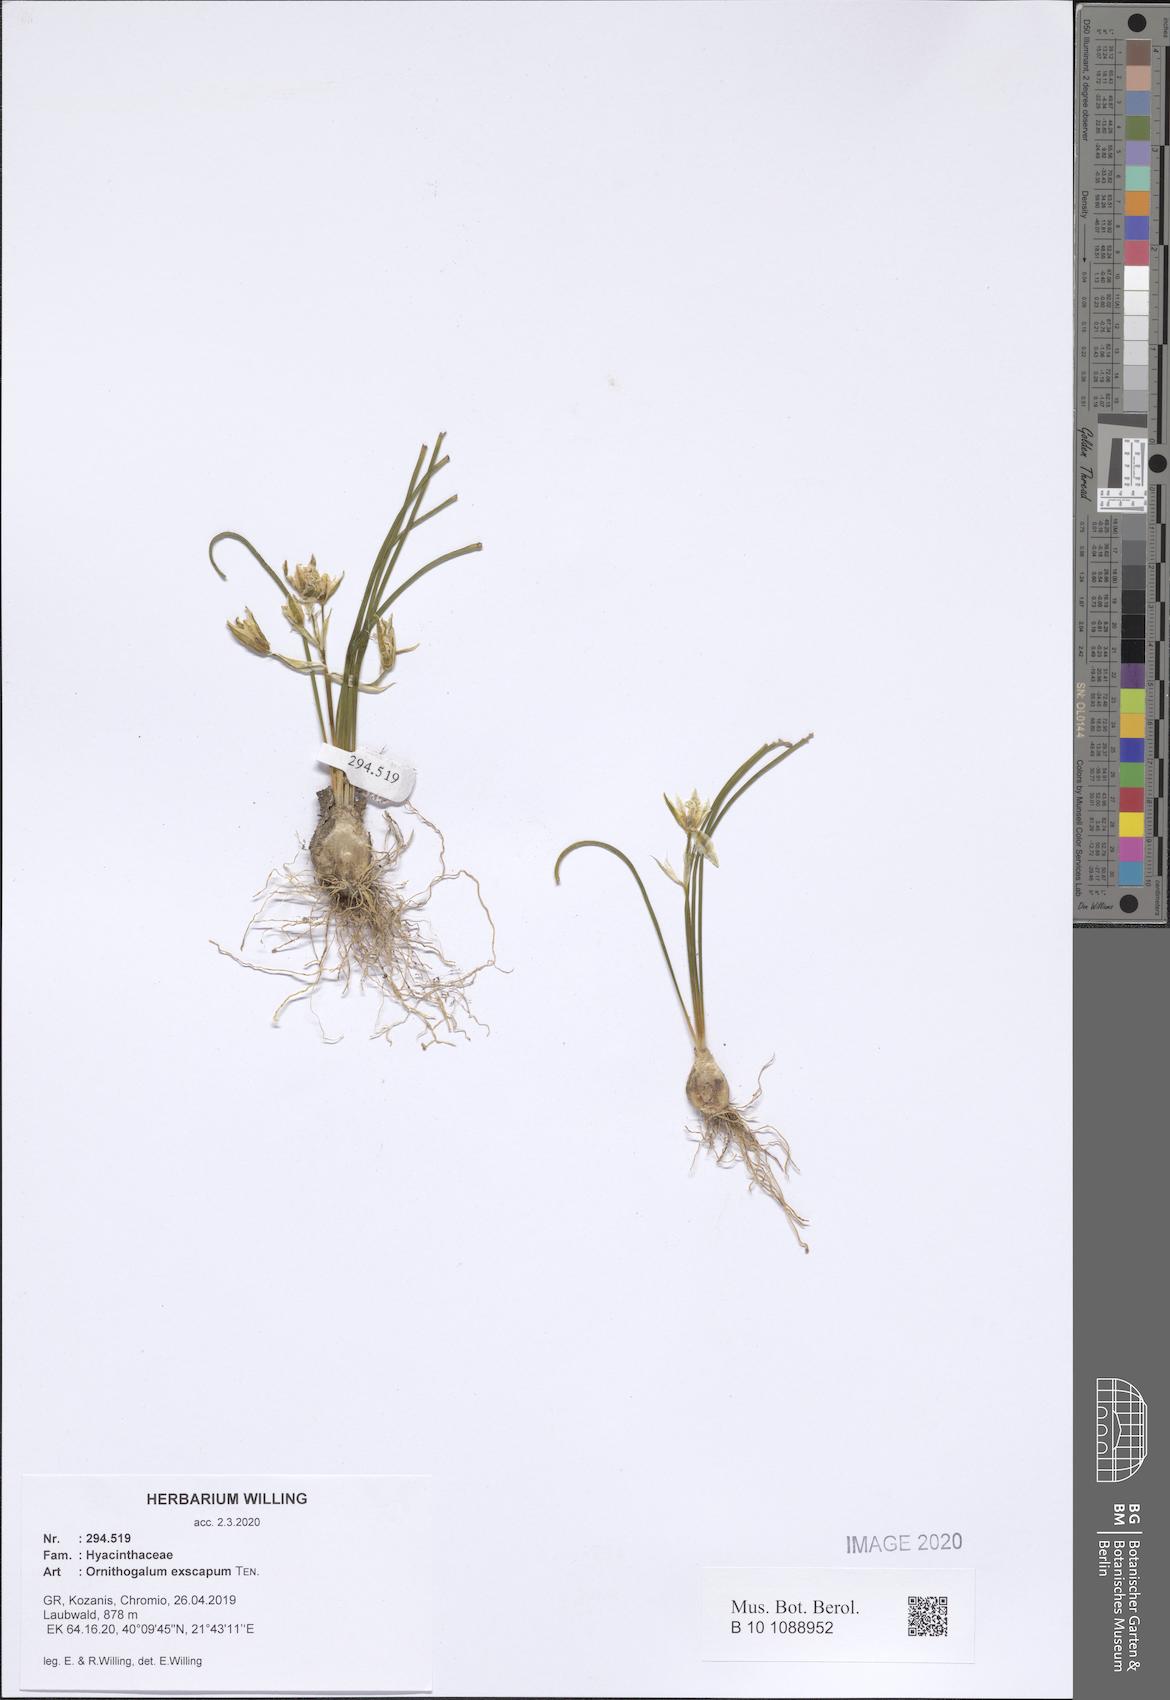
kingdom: Plantae
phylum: Tracheophyta
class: Liliopsida
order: Asparagales
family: Asparagaceae
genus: Ornithogalum
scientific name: Ornithogalum exscapum
